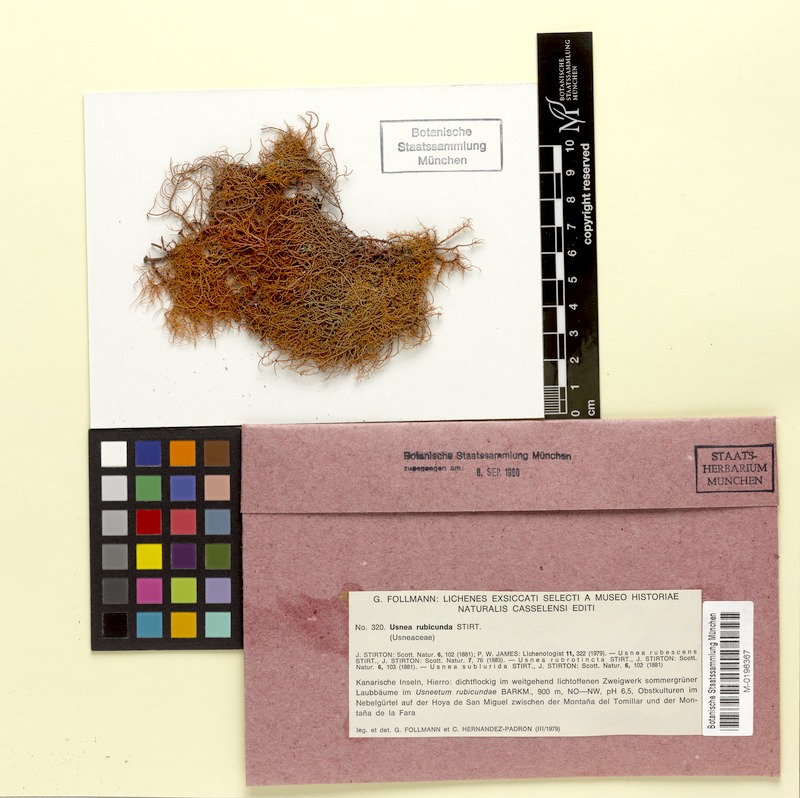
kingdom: Fungi
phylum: Ascomycota
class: Lecanoromycetes
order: Lecanorales
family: Parmeliaceae
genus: Usnea
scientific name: Usnea rubicunda
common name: Red beard lichen
